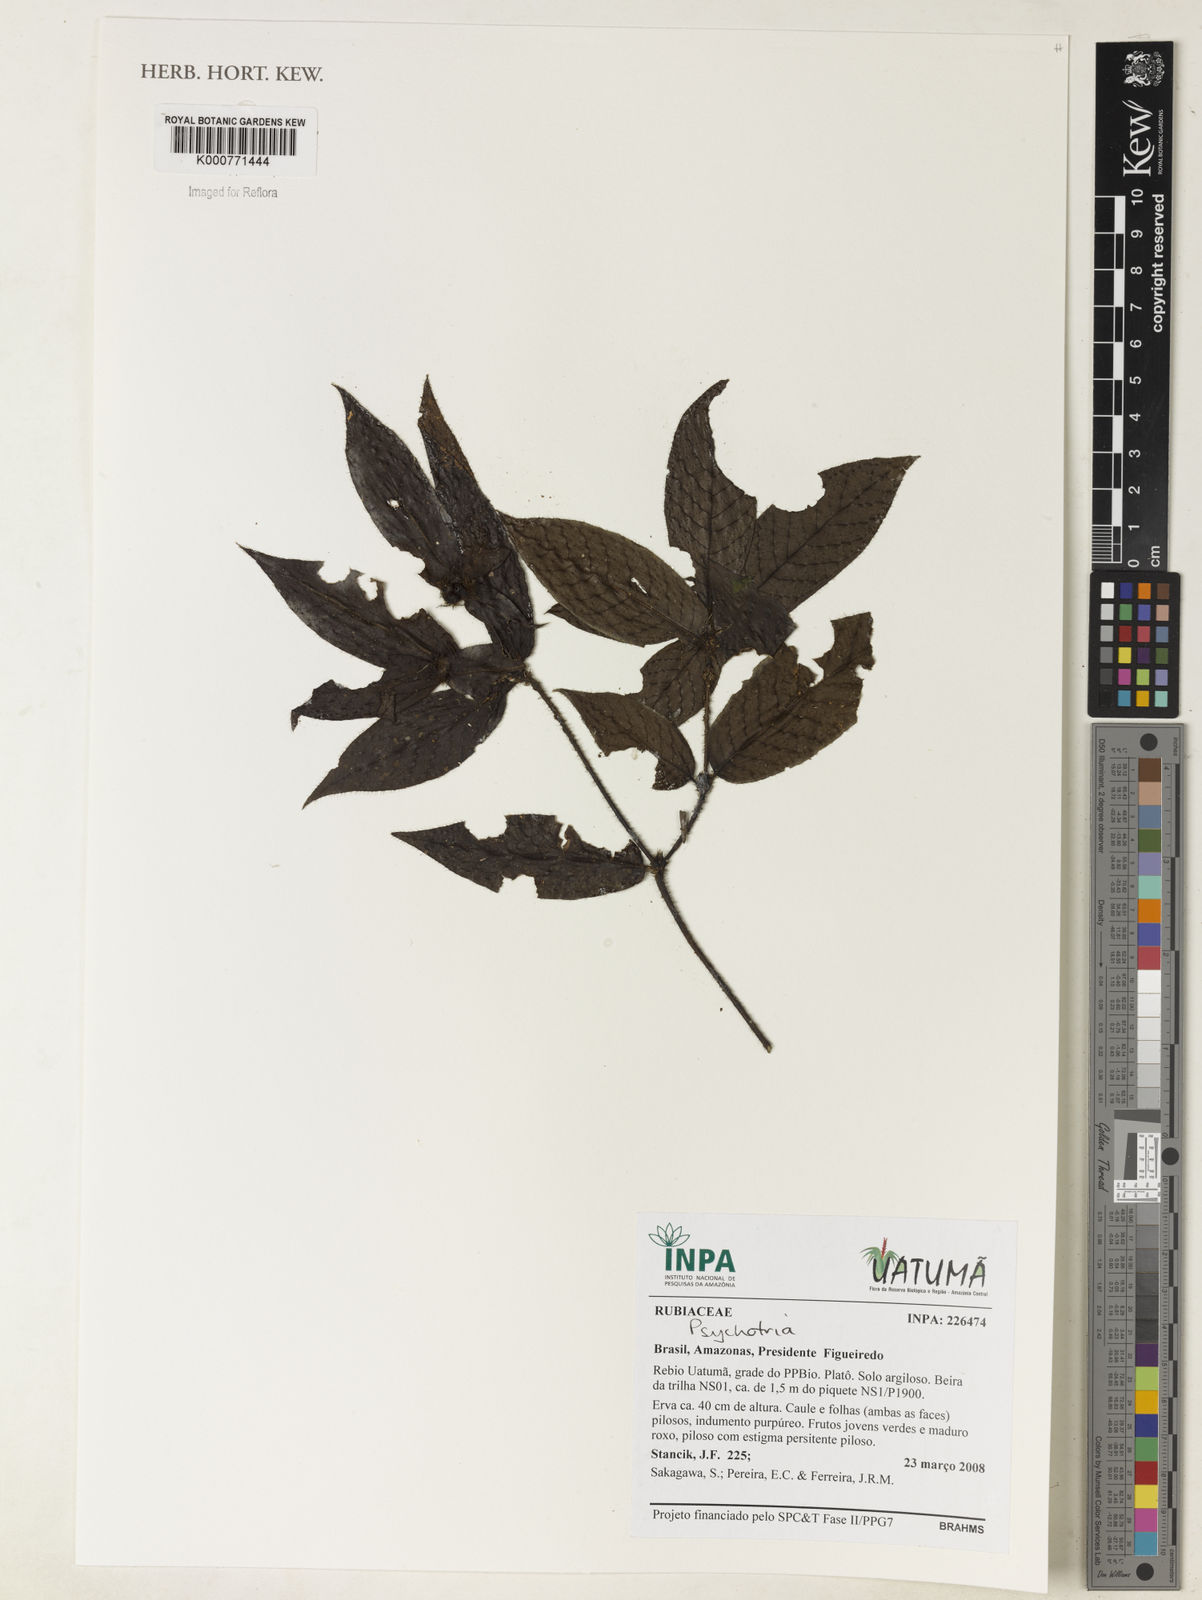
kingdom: Plantae
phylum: Tracheophyta
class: Magnoliopsida
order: Gentianales
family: Rubiaceae
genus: Psychotria
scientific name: Psychotria
